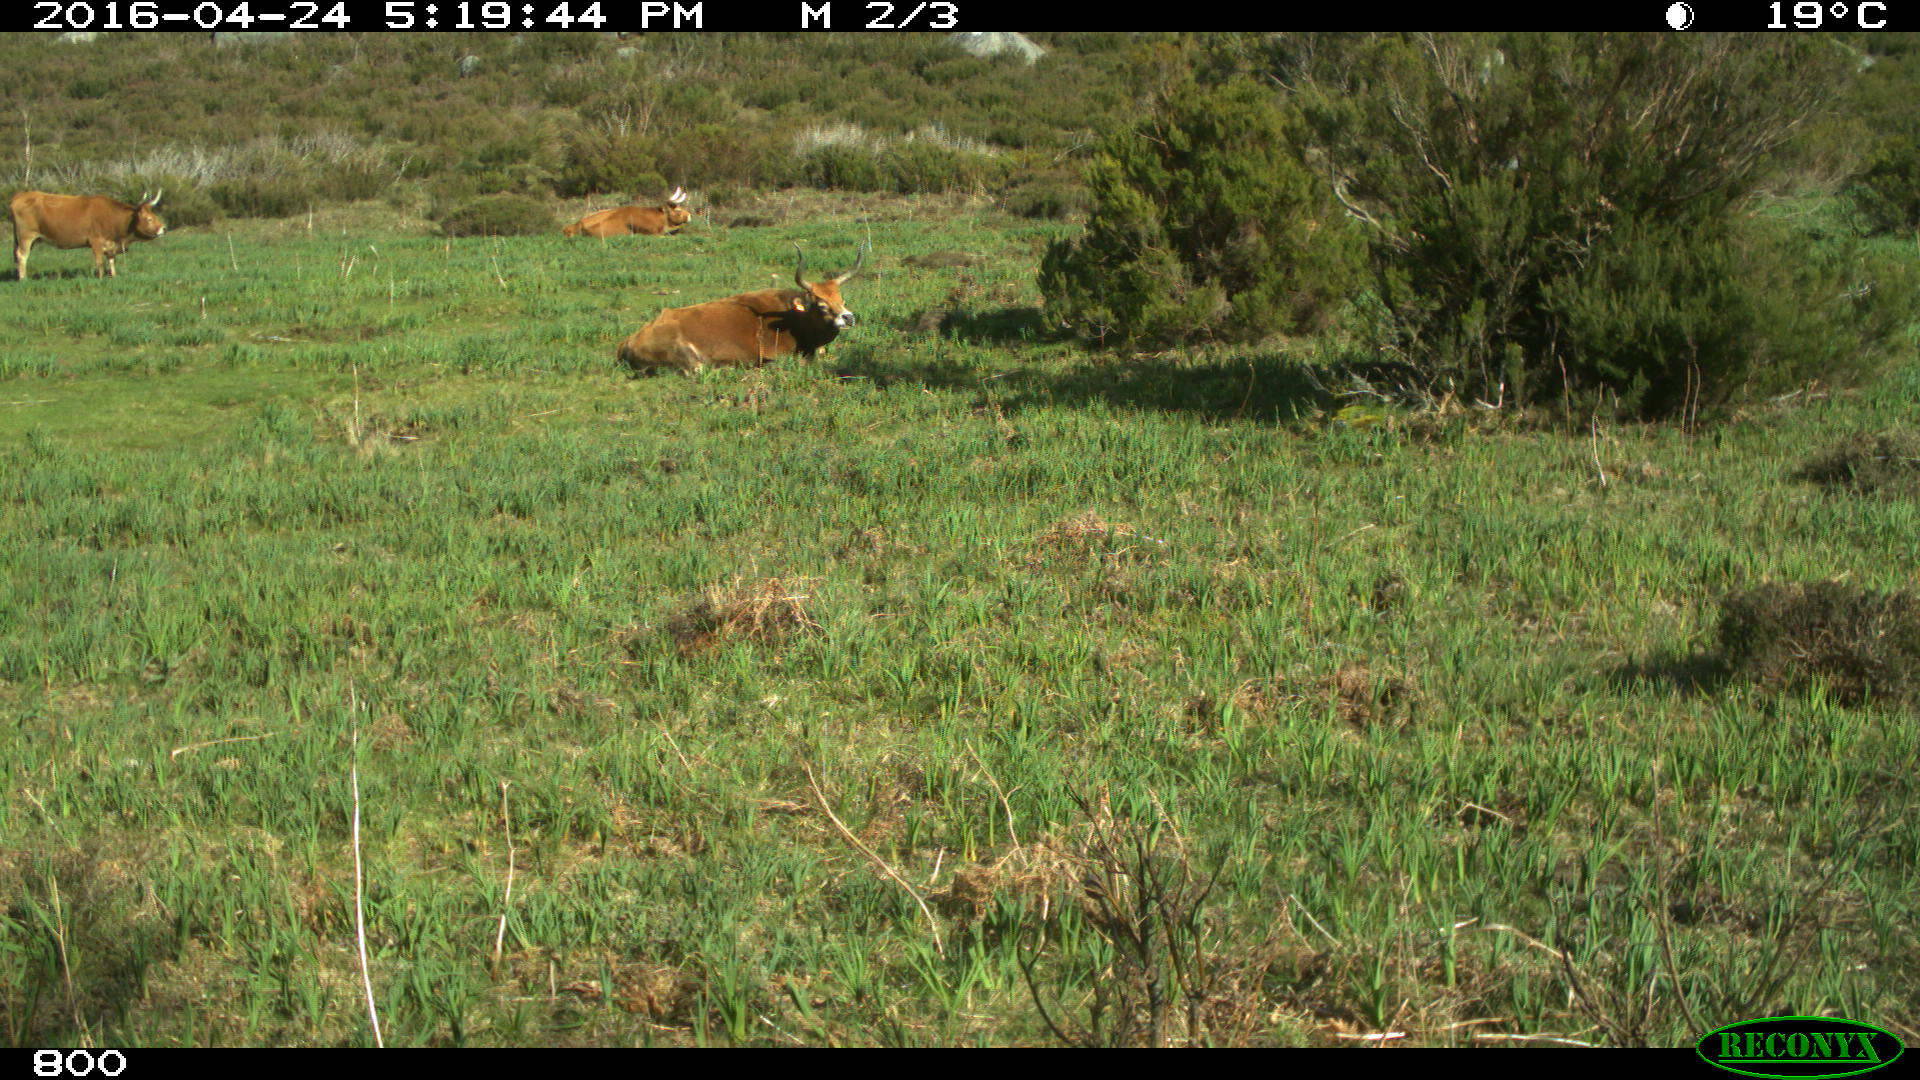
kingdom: Animalia
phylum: Chordata
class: Mammalia
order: Artiodactyla
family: Bovidae
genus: Bos
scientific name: Bos taurus
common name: Domesticated cattle
